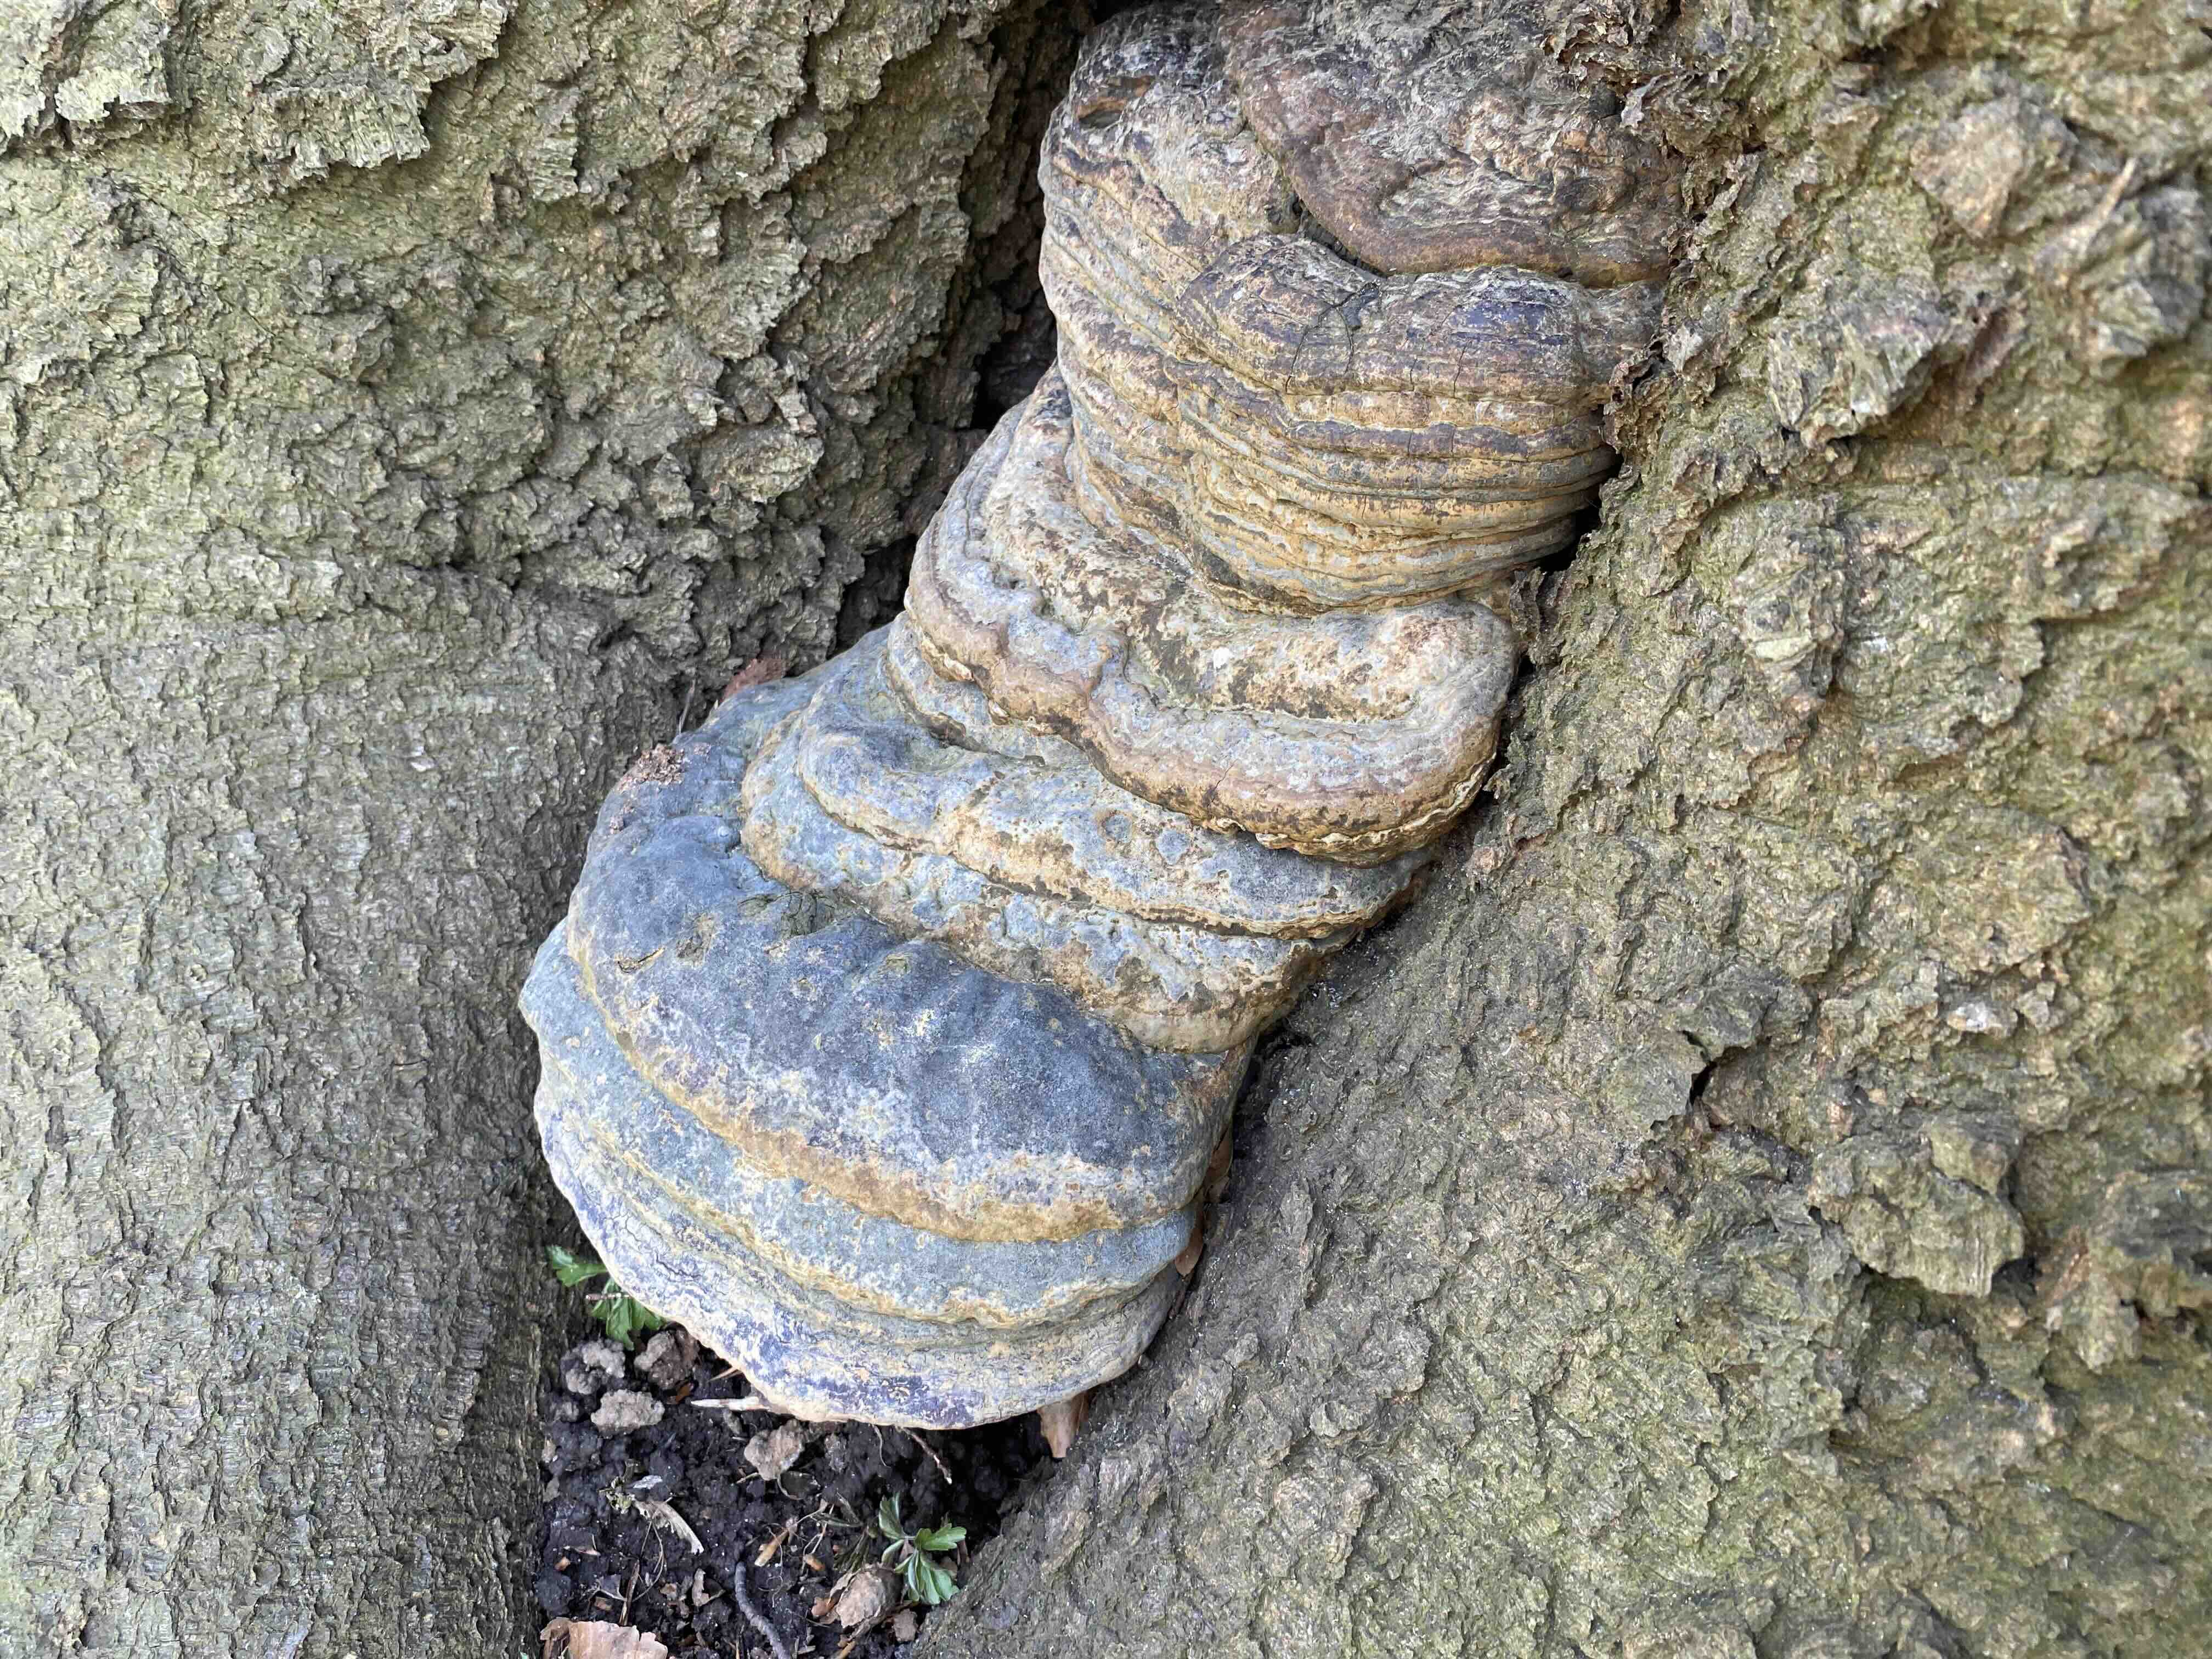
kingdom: Fungi
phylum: Basidiomycota
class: Agaricomycetes
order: Polyporales
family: Polyporaceae
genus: Ganoderma
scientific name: Ganoderma pfeifferi
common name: kobberrød lakporesvamp
